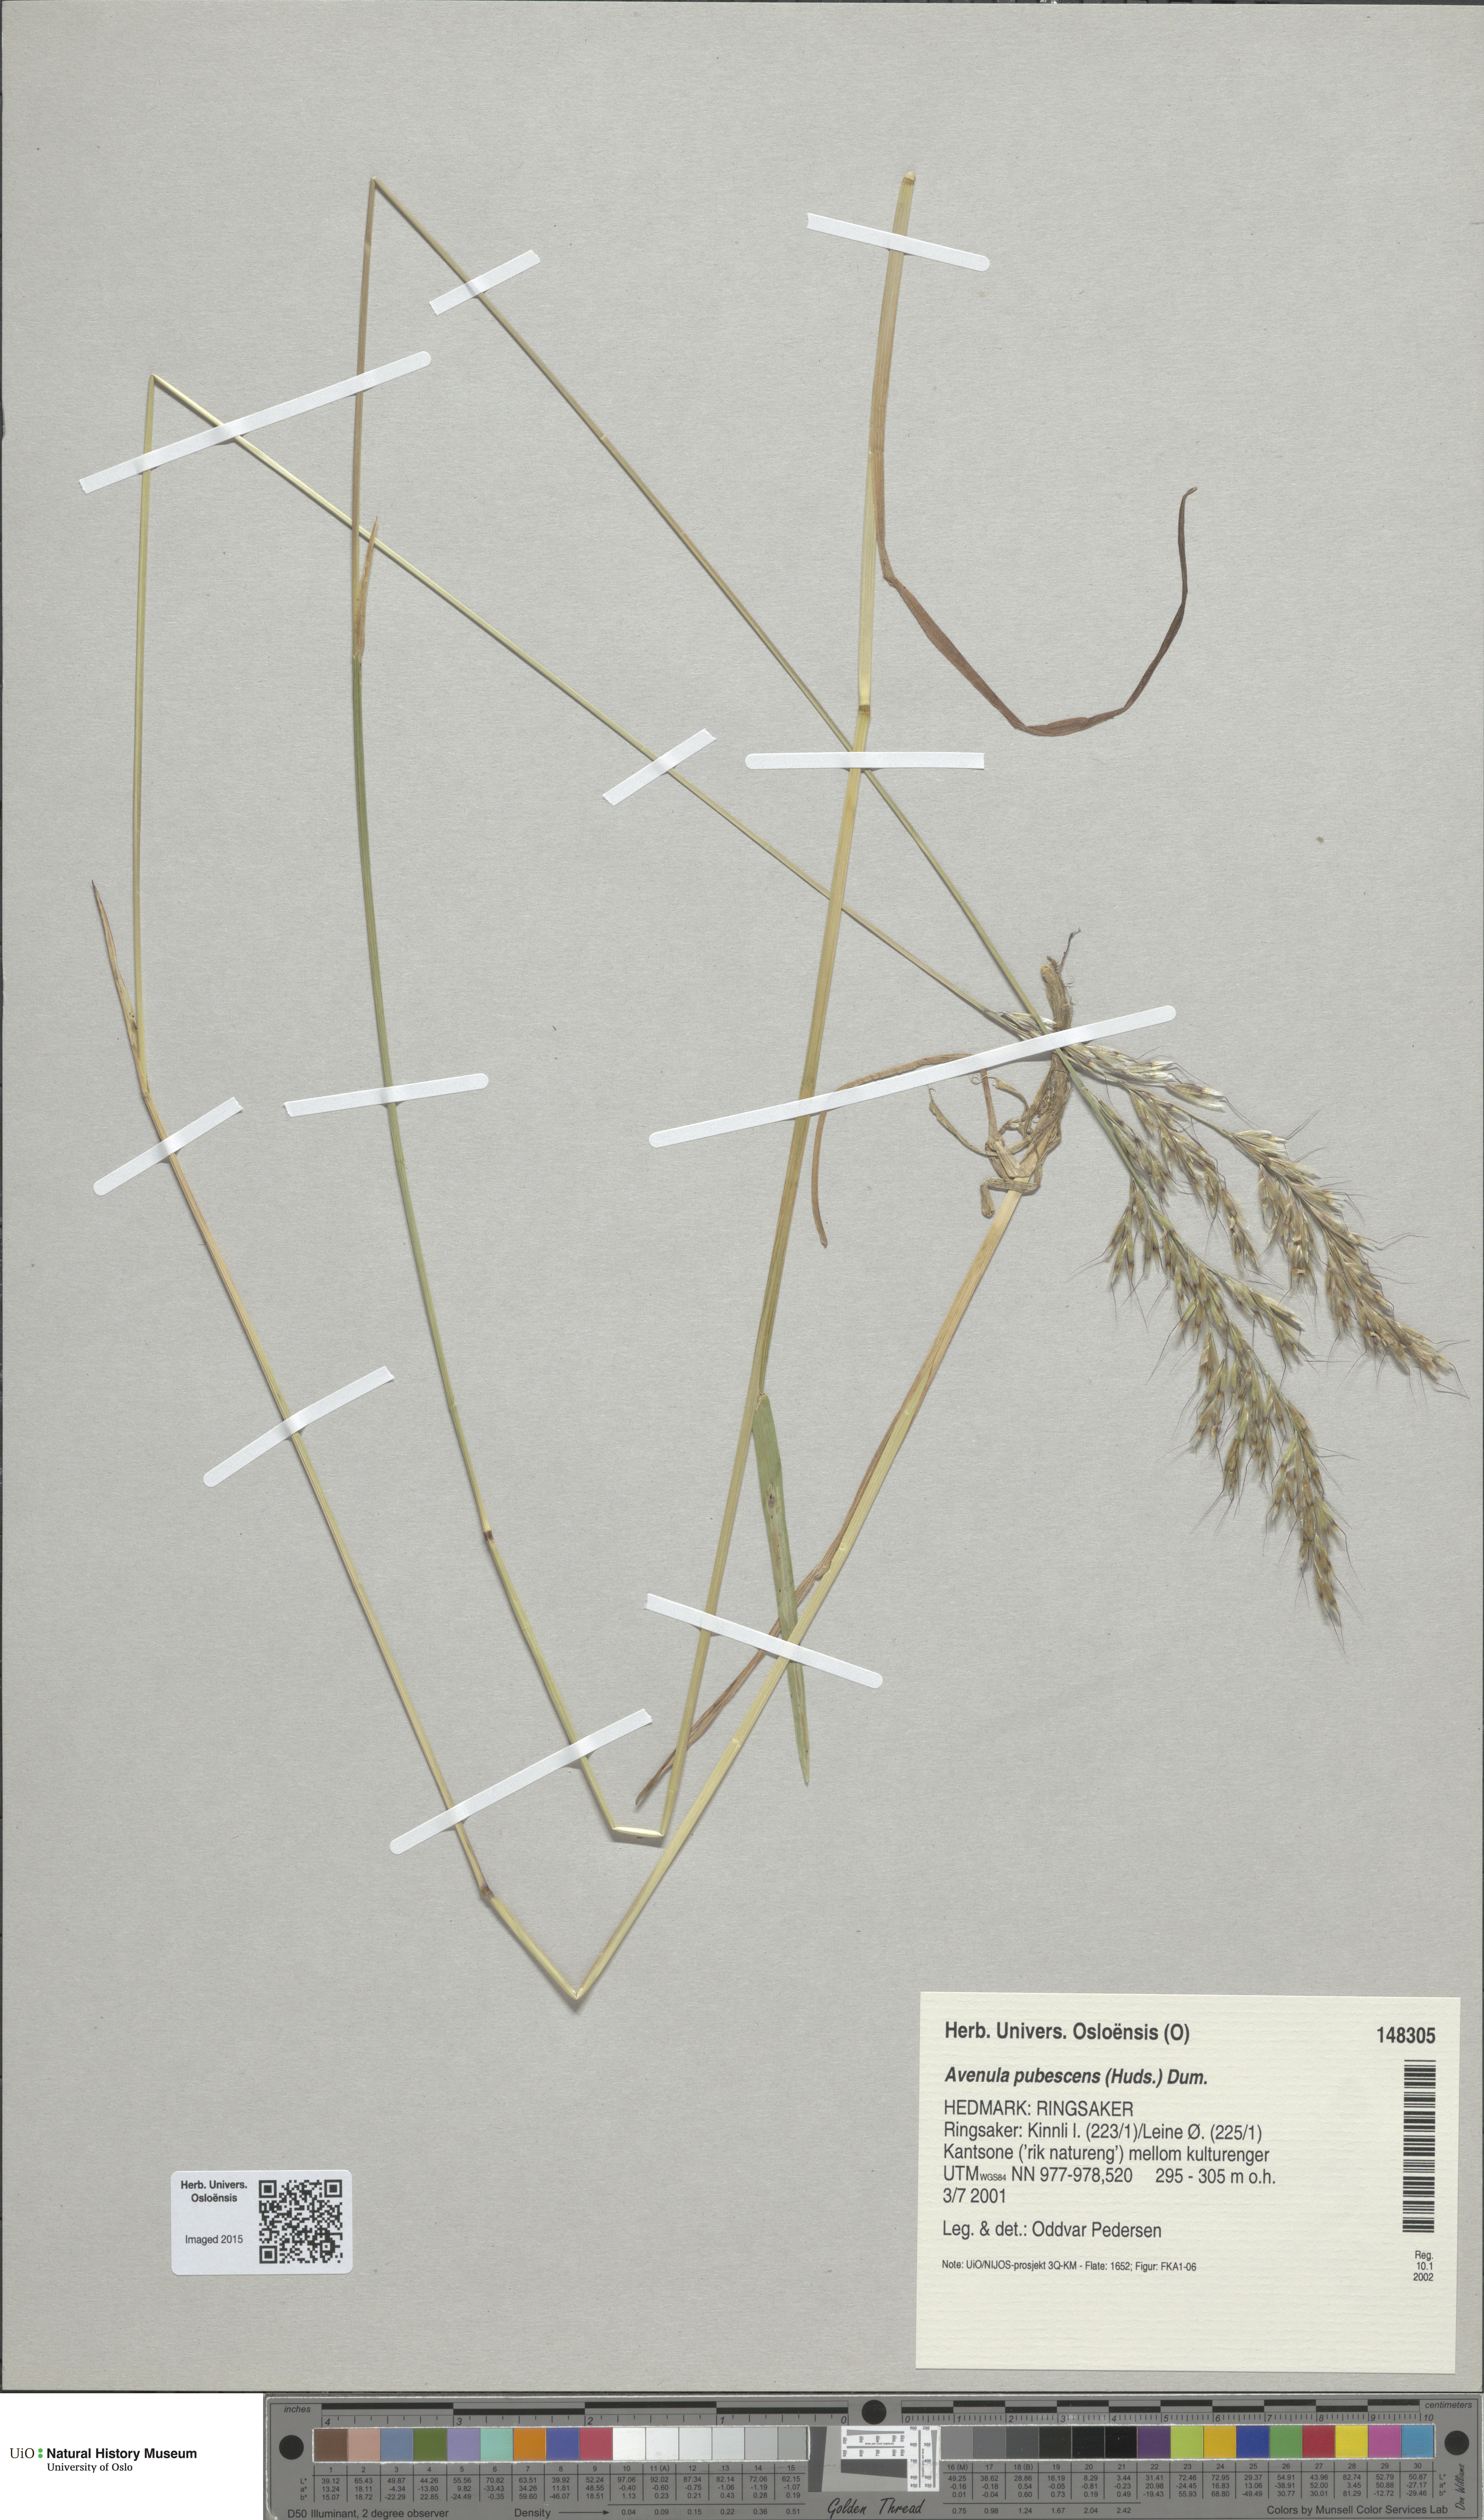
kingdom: Plantae
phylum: Tracheophyta
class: Liliopsida
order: Poales
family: Poaceae
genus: Avenula
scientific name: Avenula pubescens
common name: Downy alpine oatgrass
